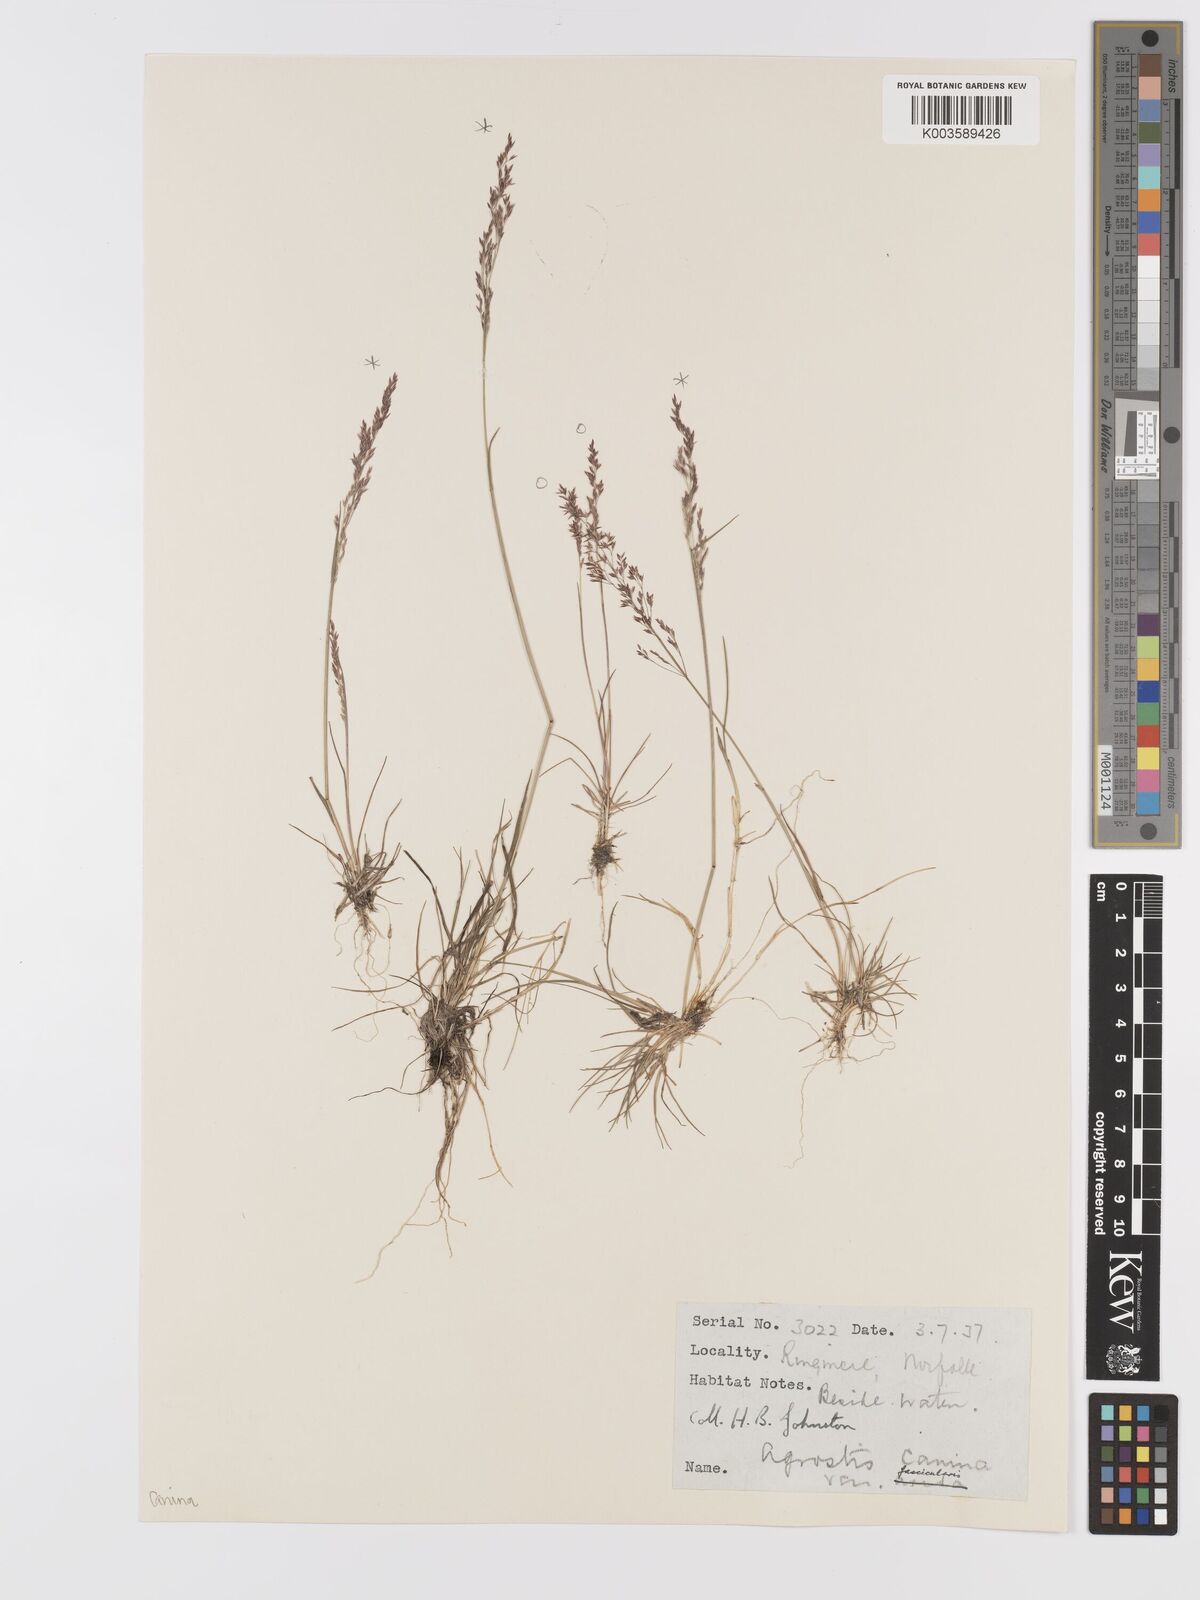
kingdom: Plantae
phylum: Tracheophyta
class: Liliopsida
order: Poales
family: Poaceae
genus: Agrostis
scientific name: Agrostis canina
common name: Velvet bent
